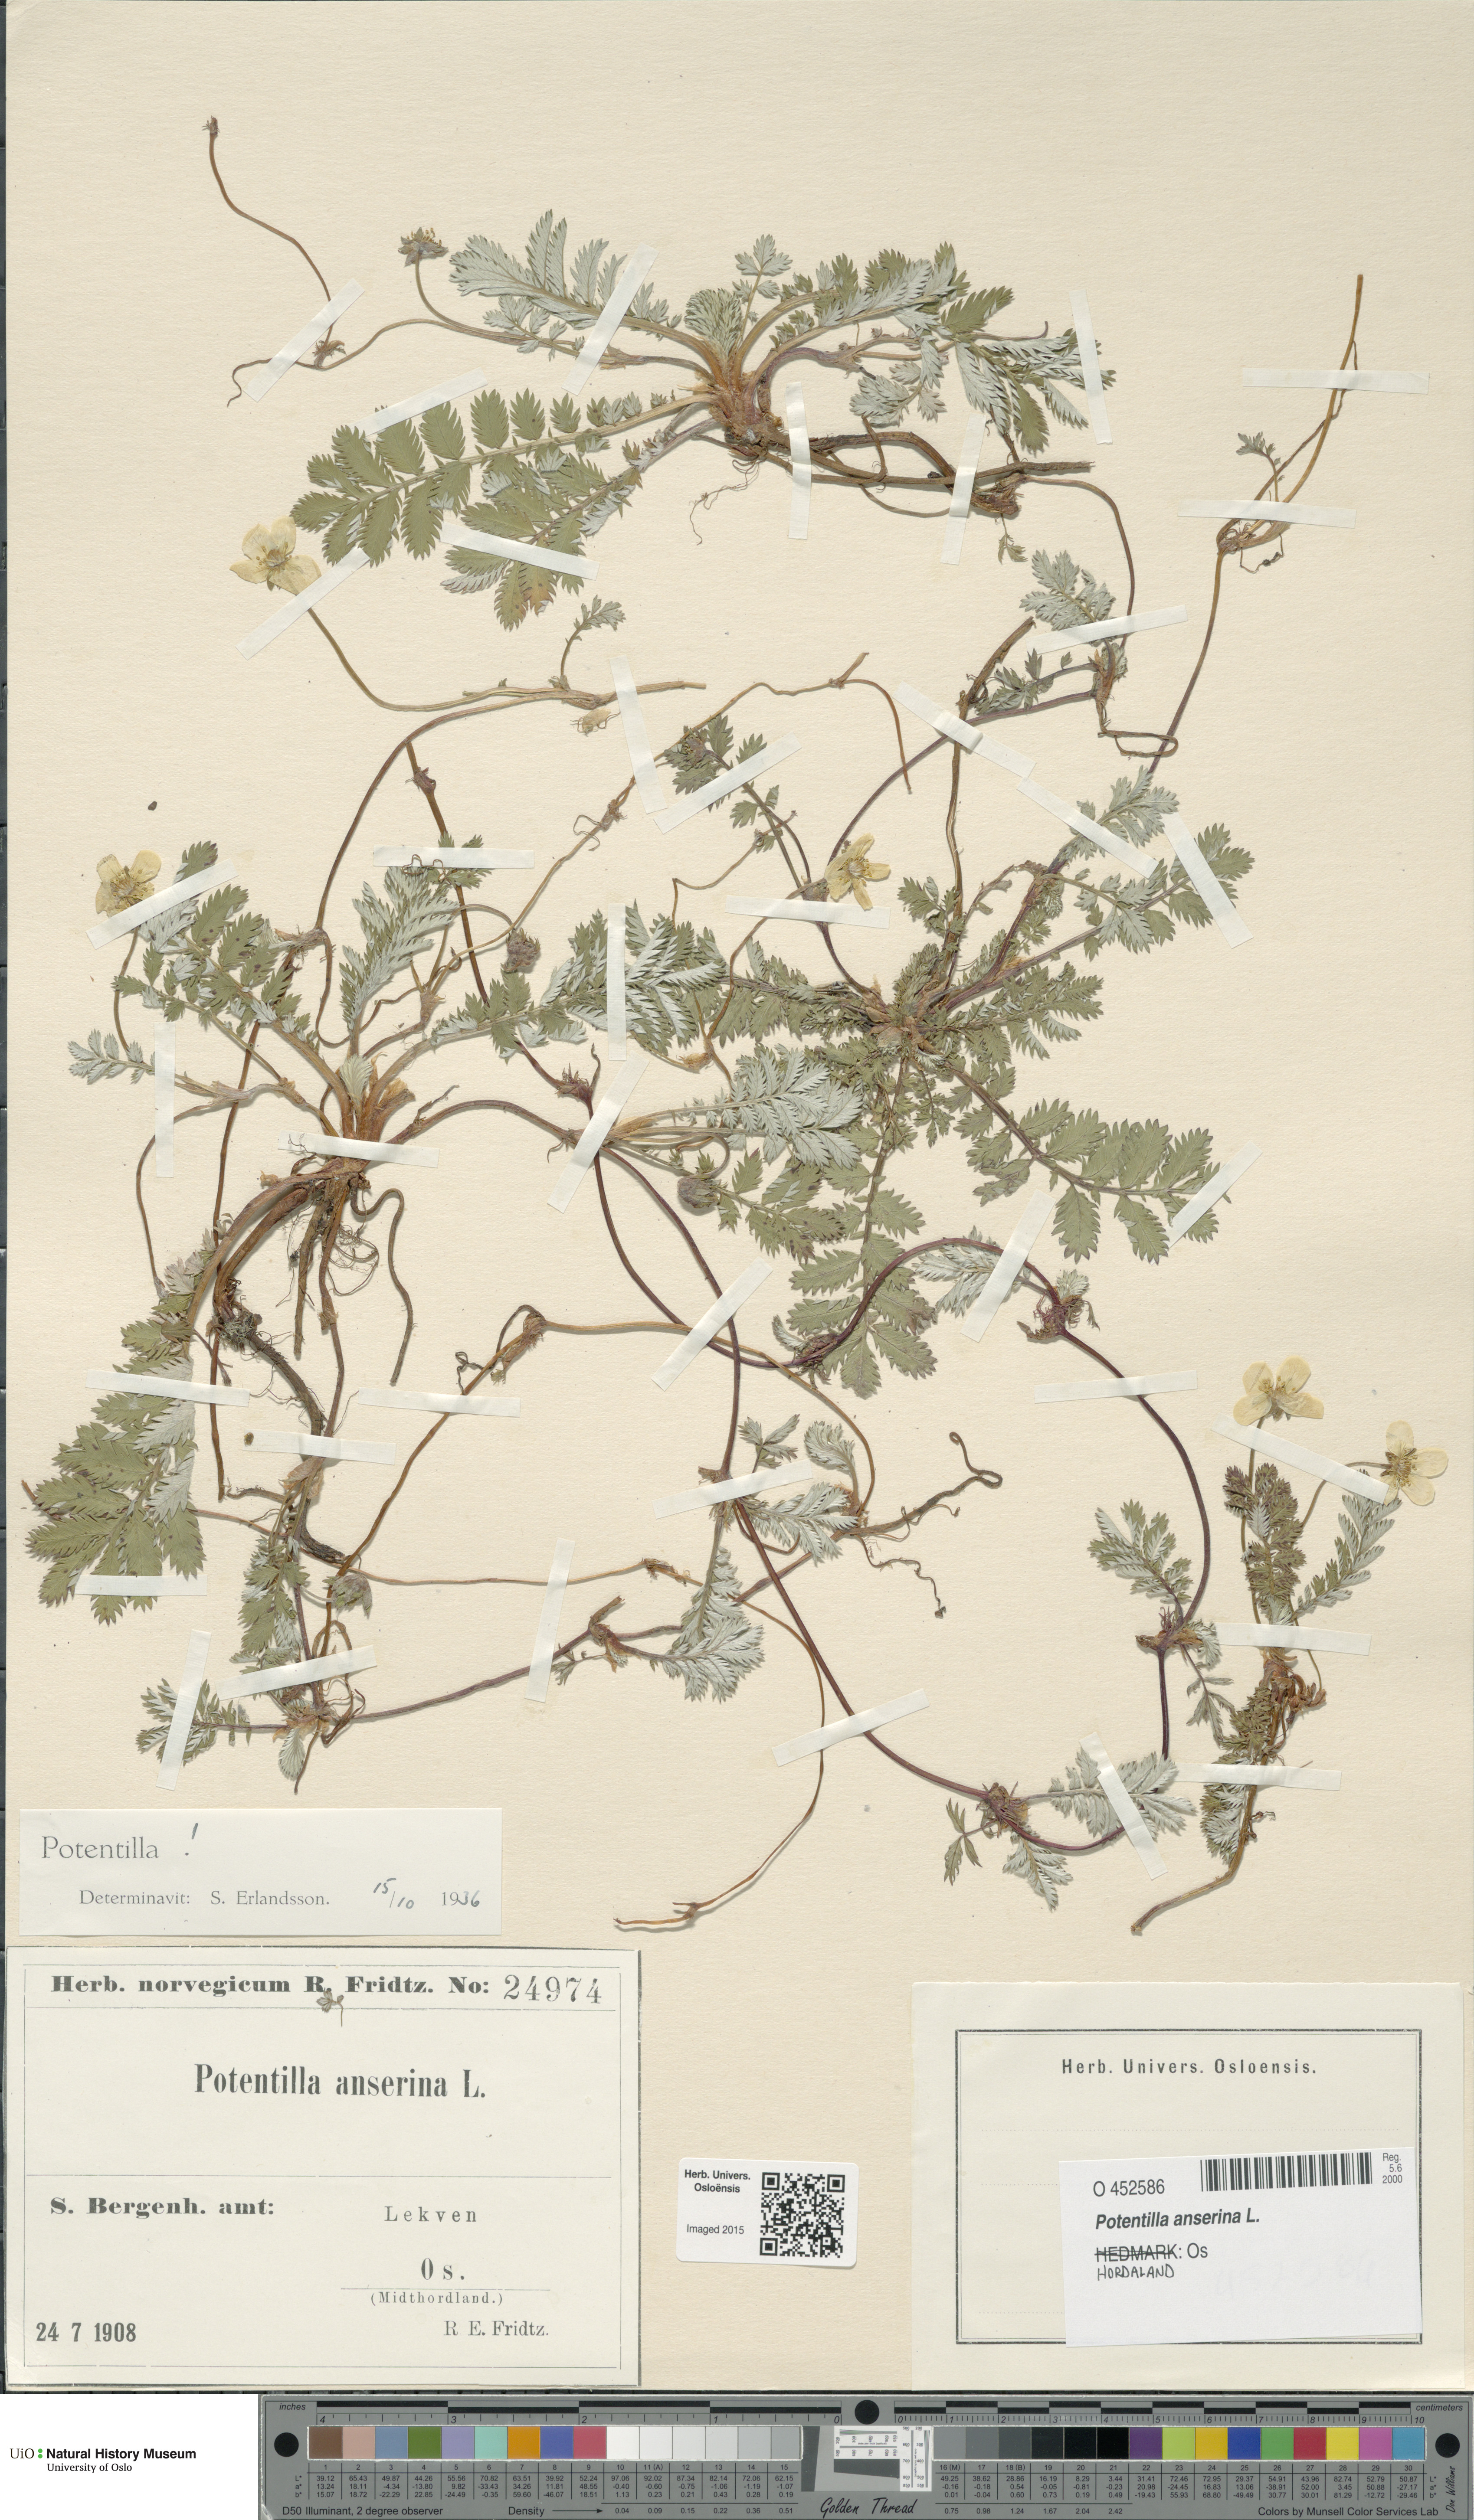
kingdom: Plantae
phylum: Tracheophyta
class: Magnoliopsida
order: Rosales
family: Rosaceae
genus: Argentina
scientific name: Argentina anserina
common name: Common silverweed
